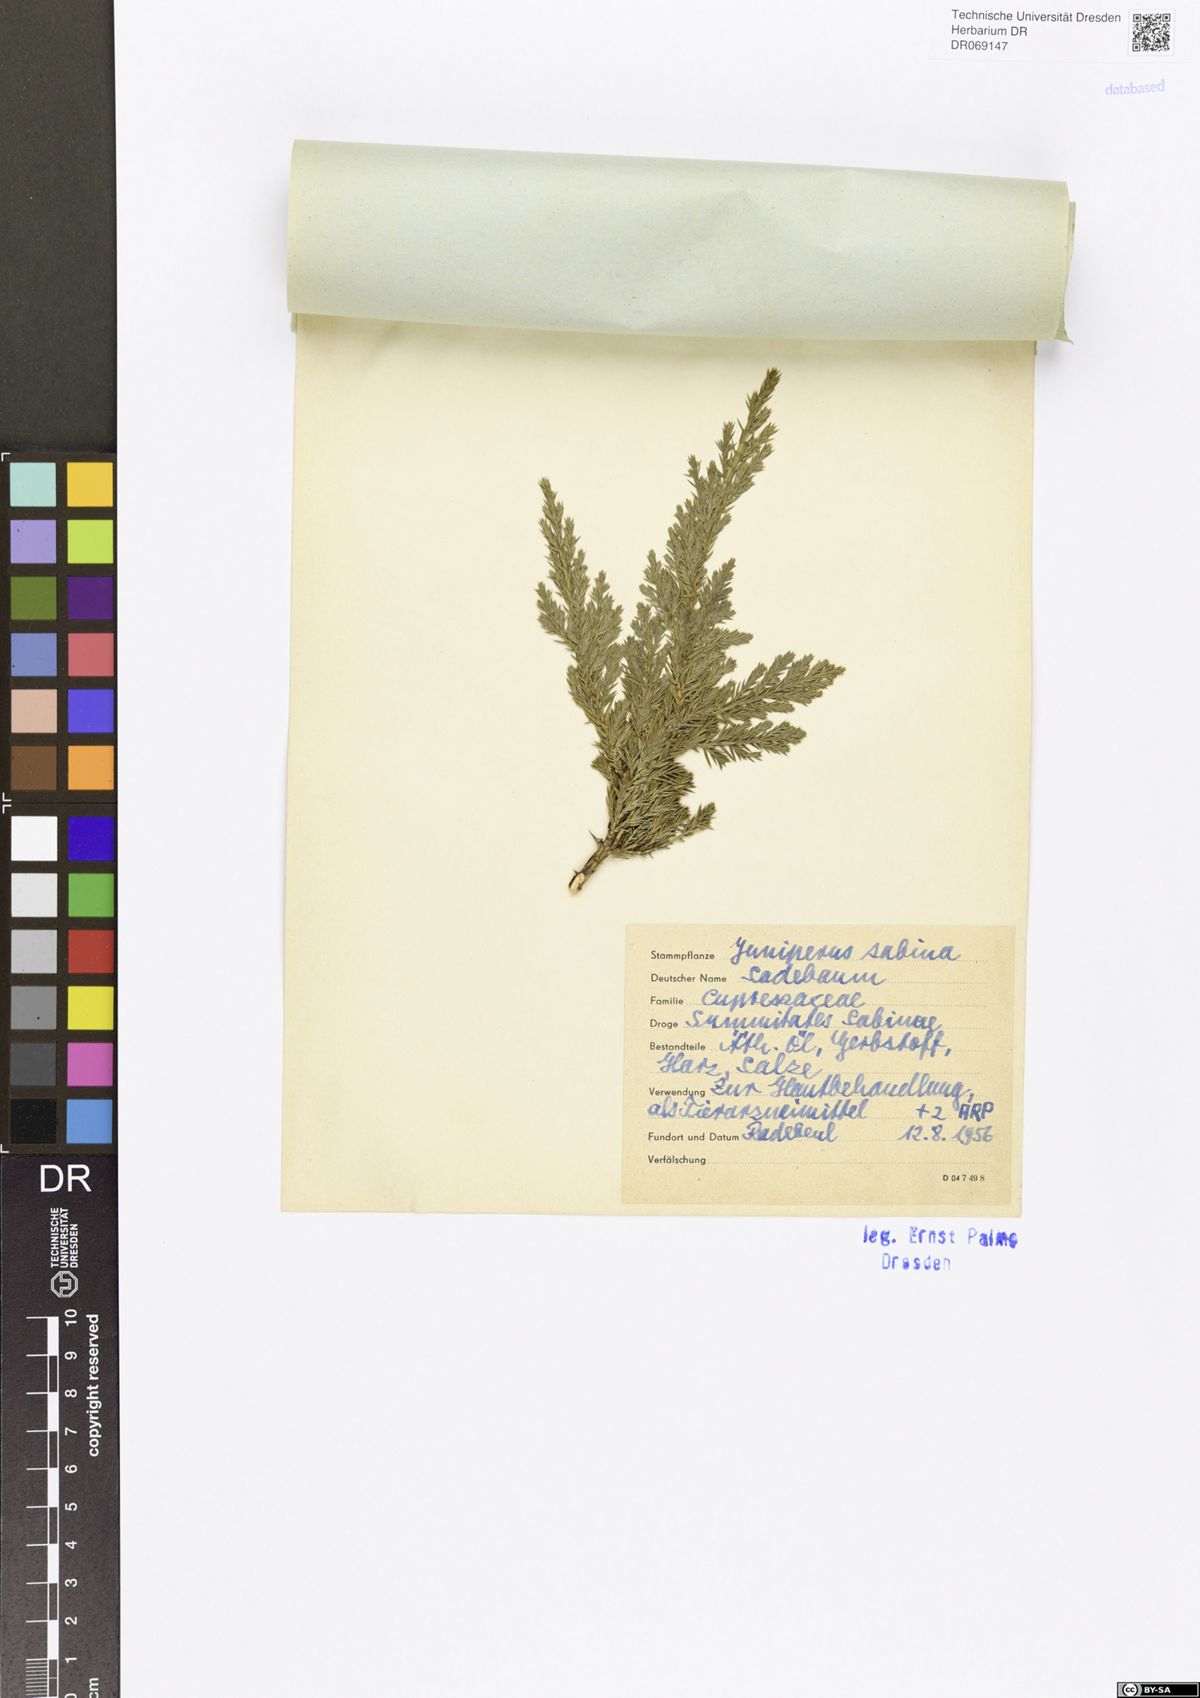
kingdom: Plantae
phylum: Tracheophyta
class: Pinopsida
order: Pinales
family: Cupressaceae
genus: Juniperus
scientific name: Juniperus sabina
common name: Savin
